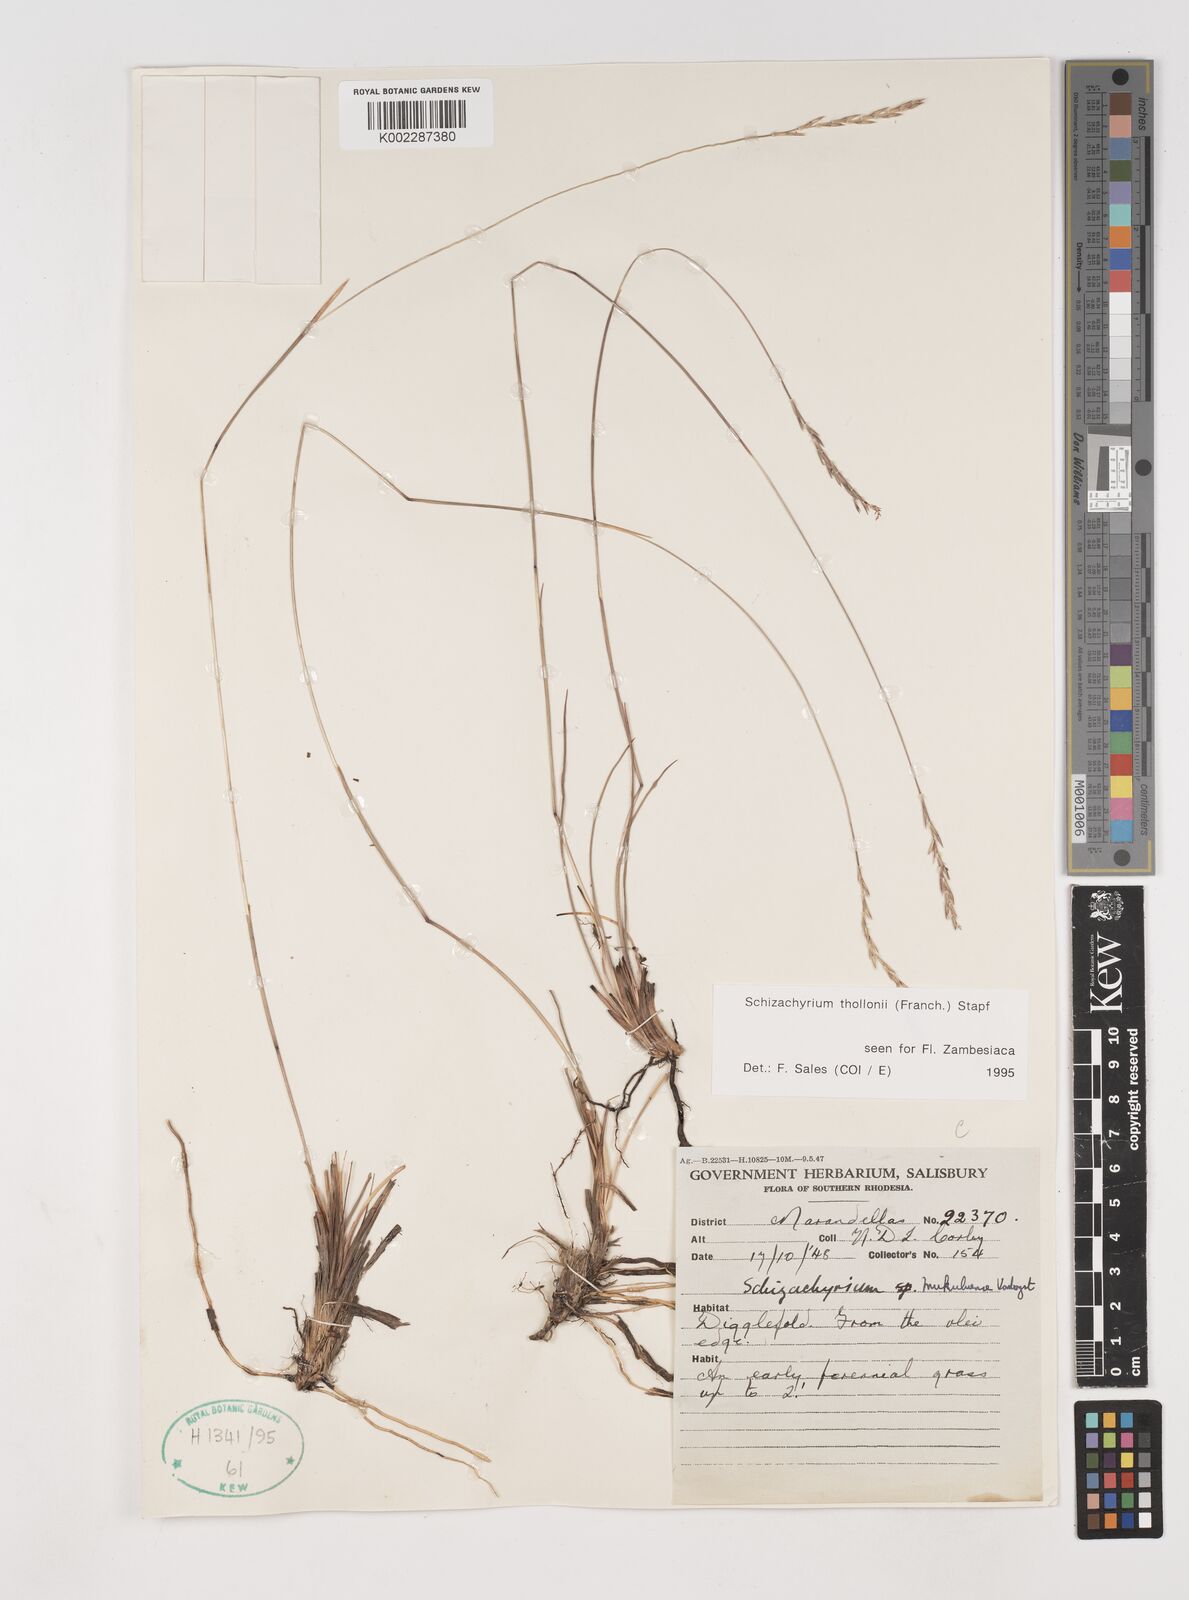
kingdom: Plantae
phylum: Tracheophyta
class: Liliopsida
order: Poales
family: Poaceae
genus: Schizachyrium
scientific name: Schizachyrium thollonii
